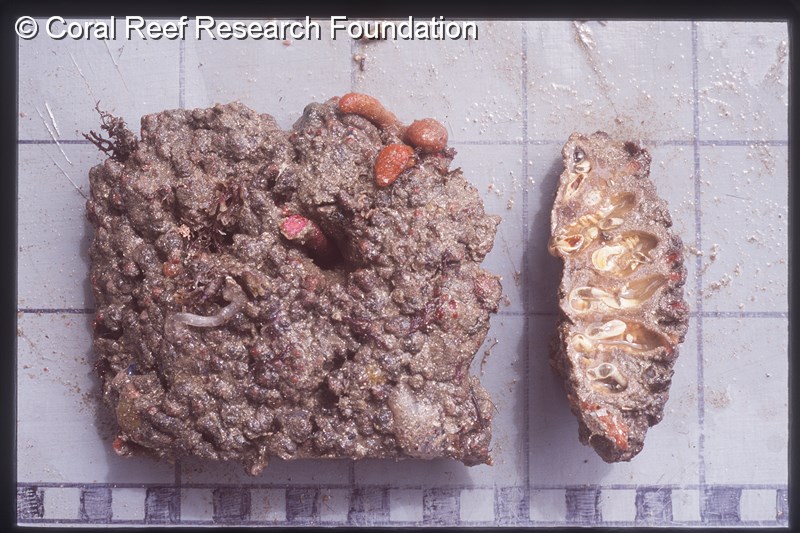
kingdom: Animalia
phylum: Chordata
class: Ascidiacea
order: Stolidobranchia
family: Styelidae
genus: Polyandrocarpa
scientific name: Polyandrocarpa anguinea
